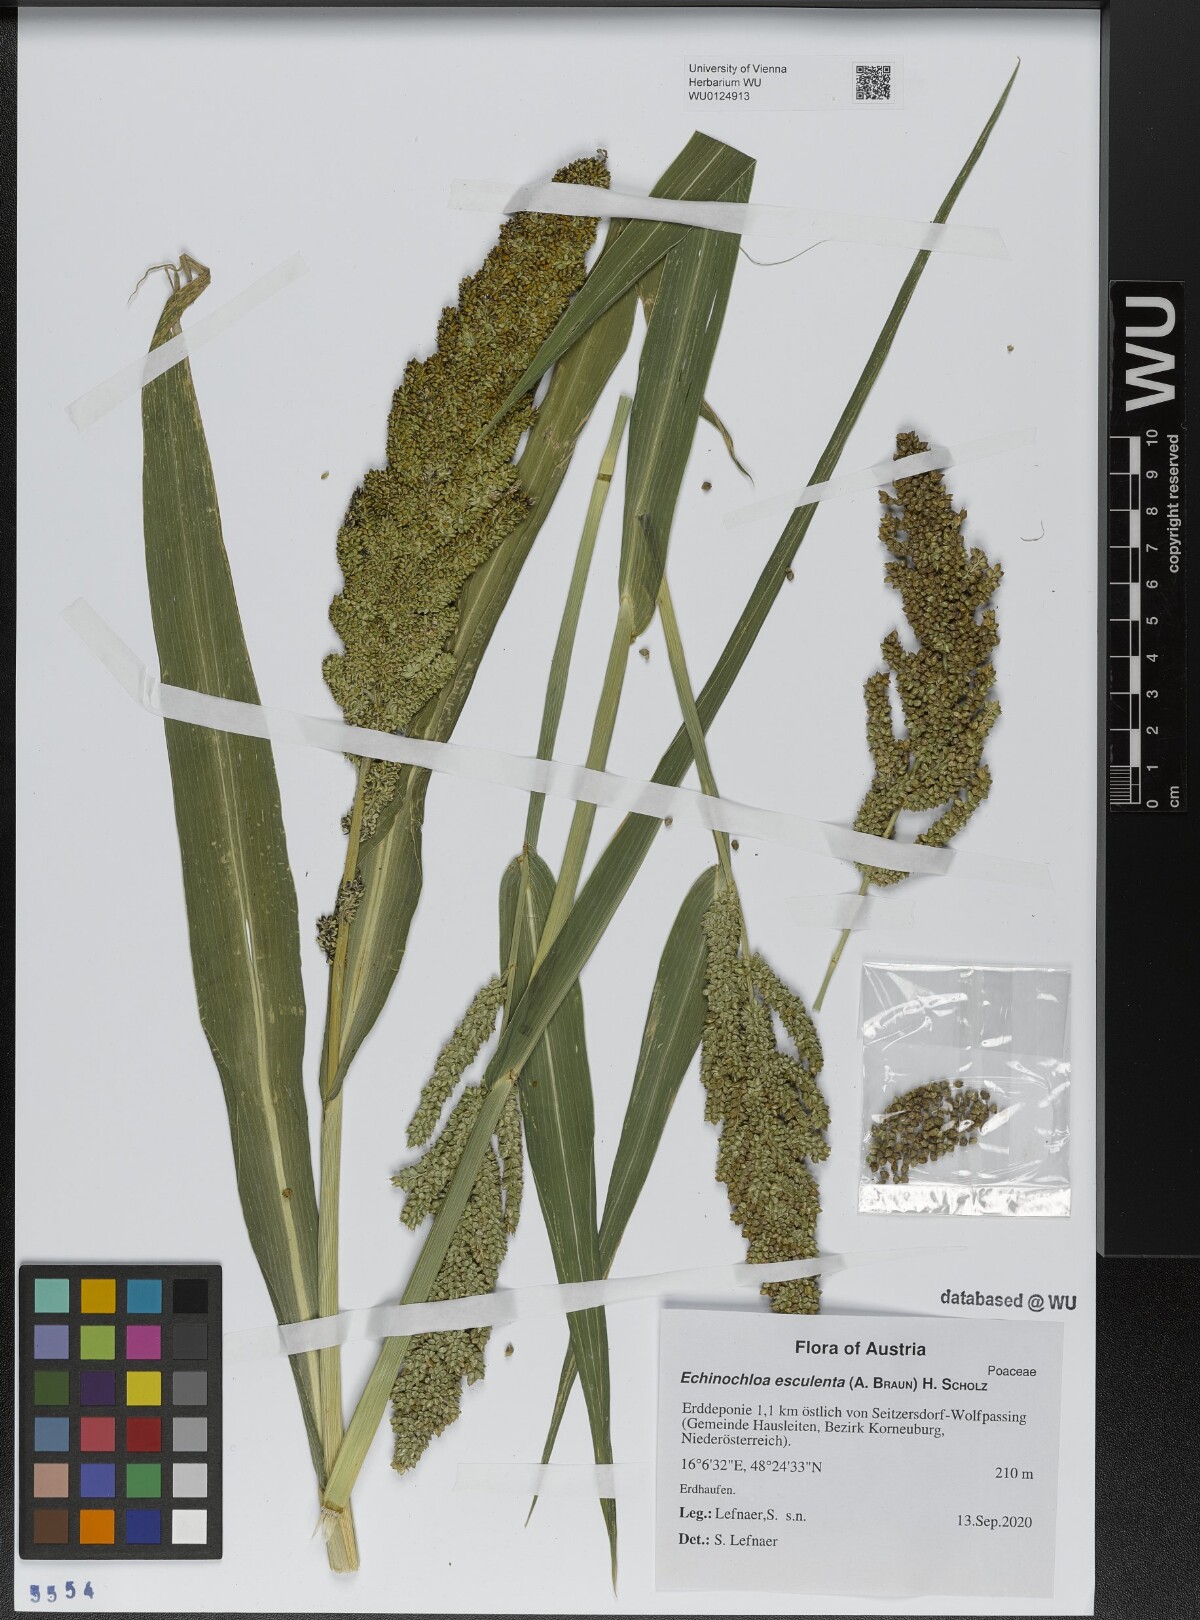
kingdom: Plantae
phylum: Tracheophyta
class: Liliopsida
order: Poales
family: Poaceae
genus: Echinochloa
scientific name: Echinochloa crus-galli
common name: Cockspur
